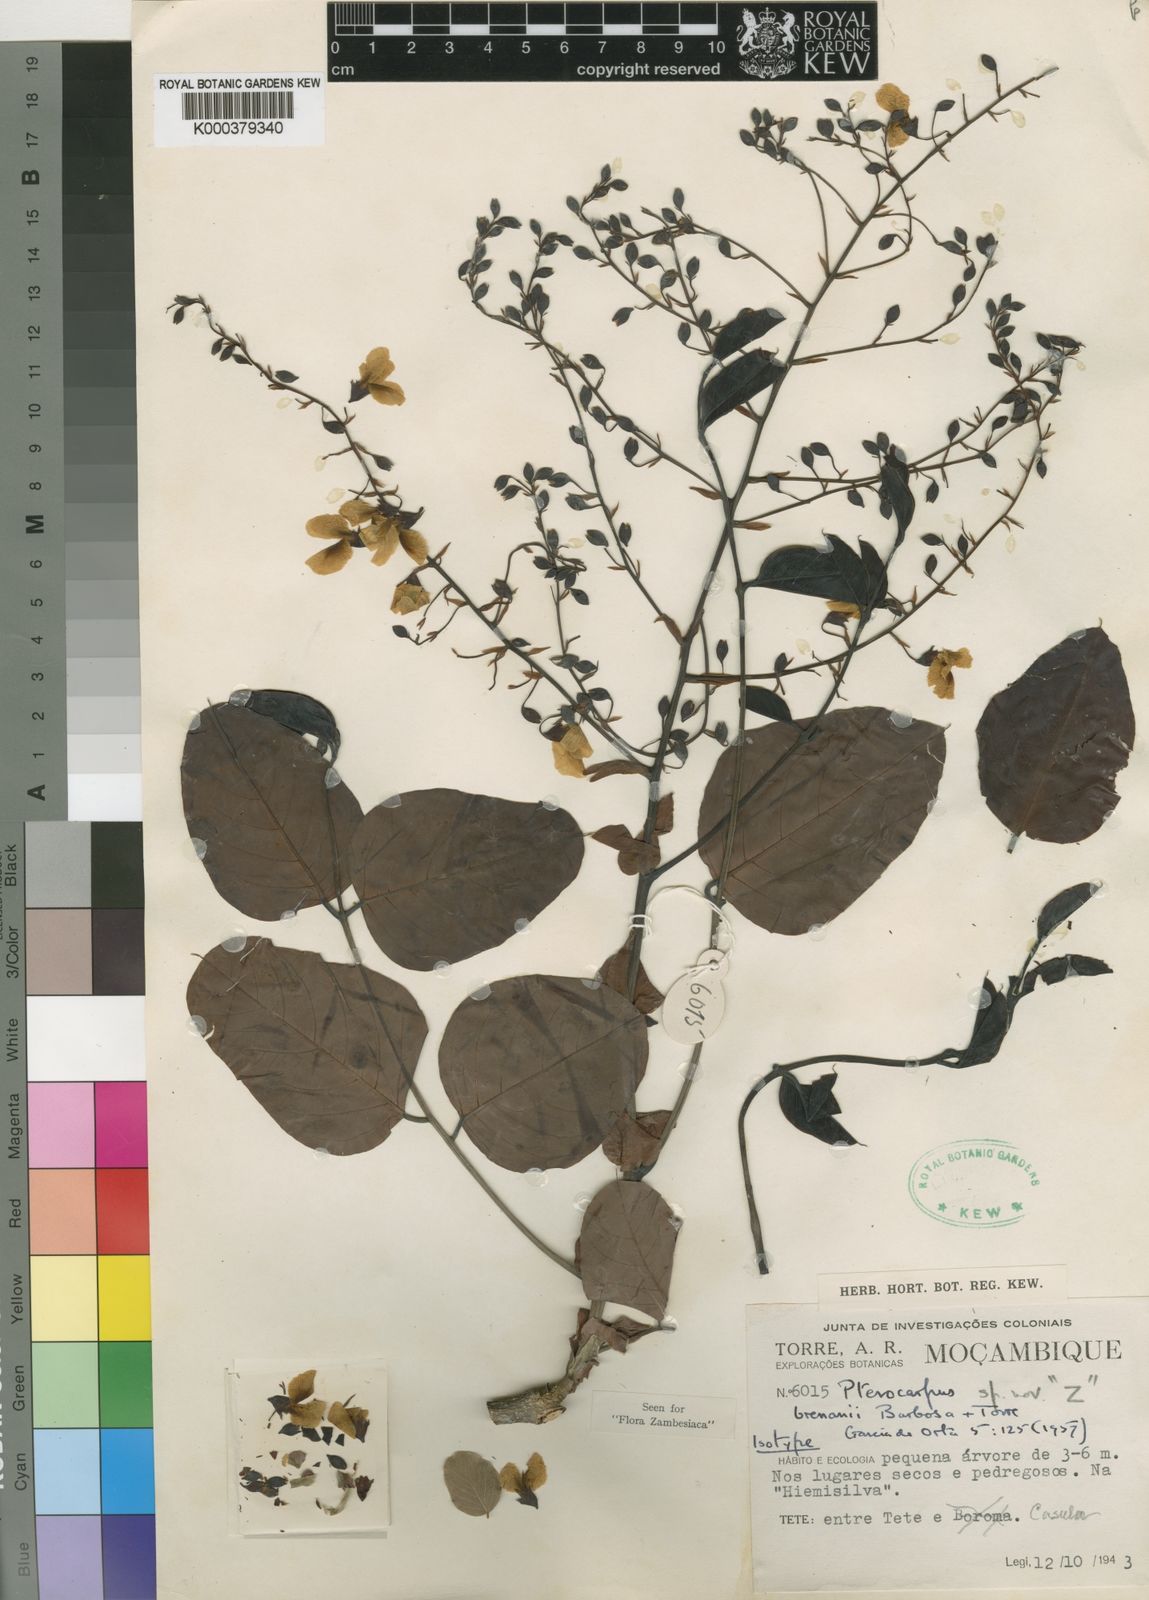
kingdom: Plantae
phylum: Tracheophyta
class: Magnoliopsida
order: Fabales
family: Fabaceae
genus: Pterocarpus
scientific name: Pterocarpus brenanii
